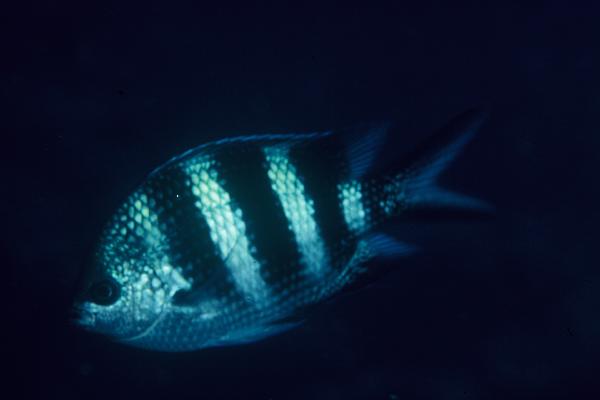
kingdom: Animalia
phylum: Chordata
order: Perciformes
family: Pomacentridae
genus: Abudefduf
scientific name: Abudefduf sexfasciatus
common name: Scissortail sergeant
